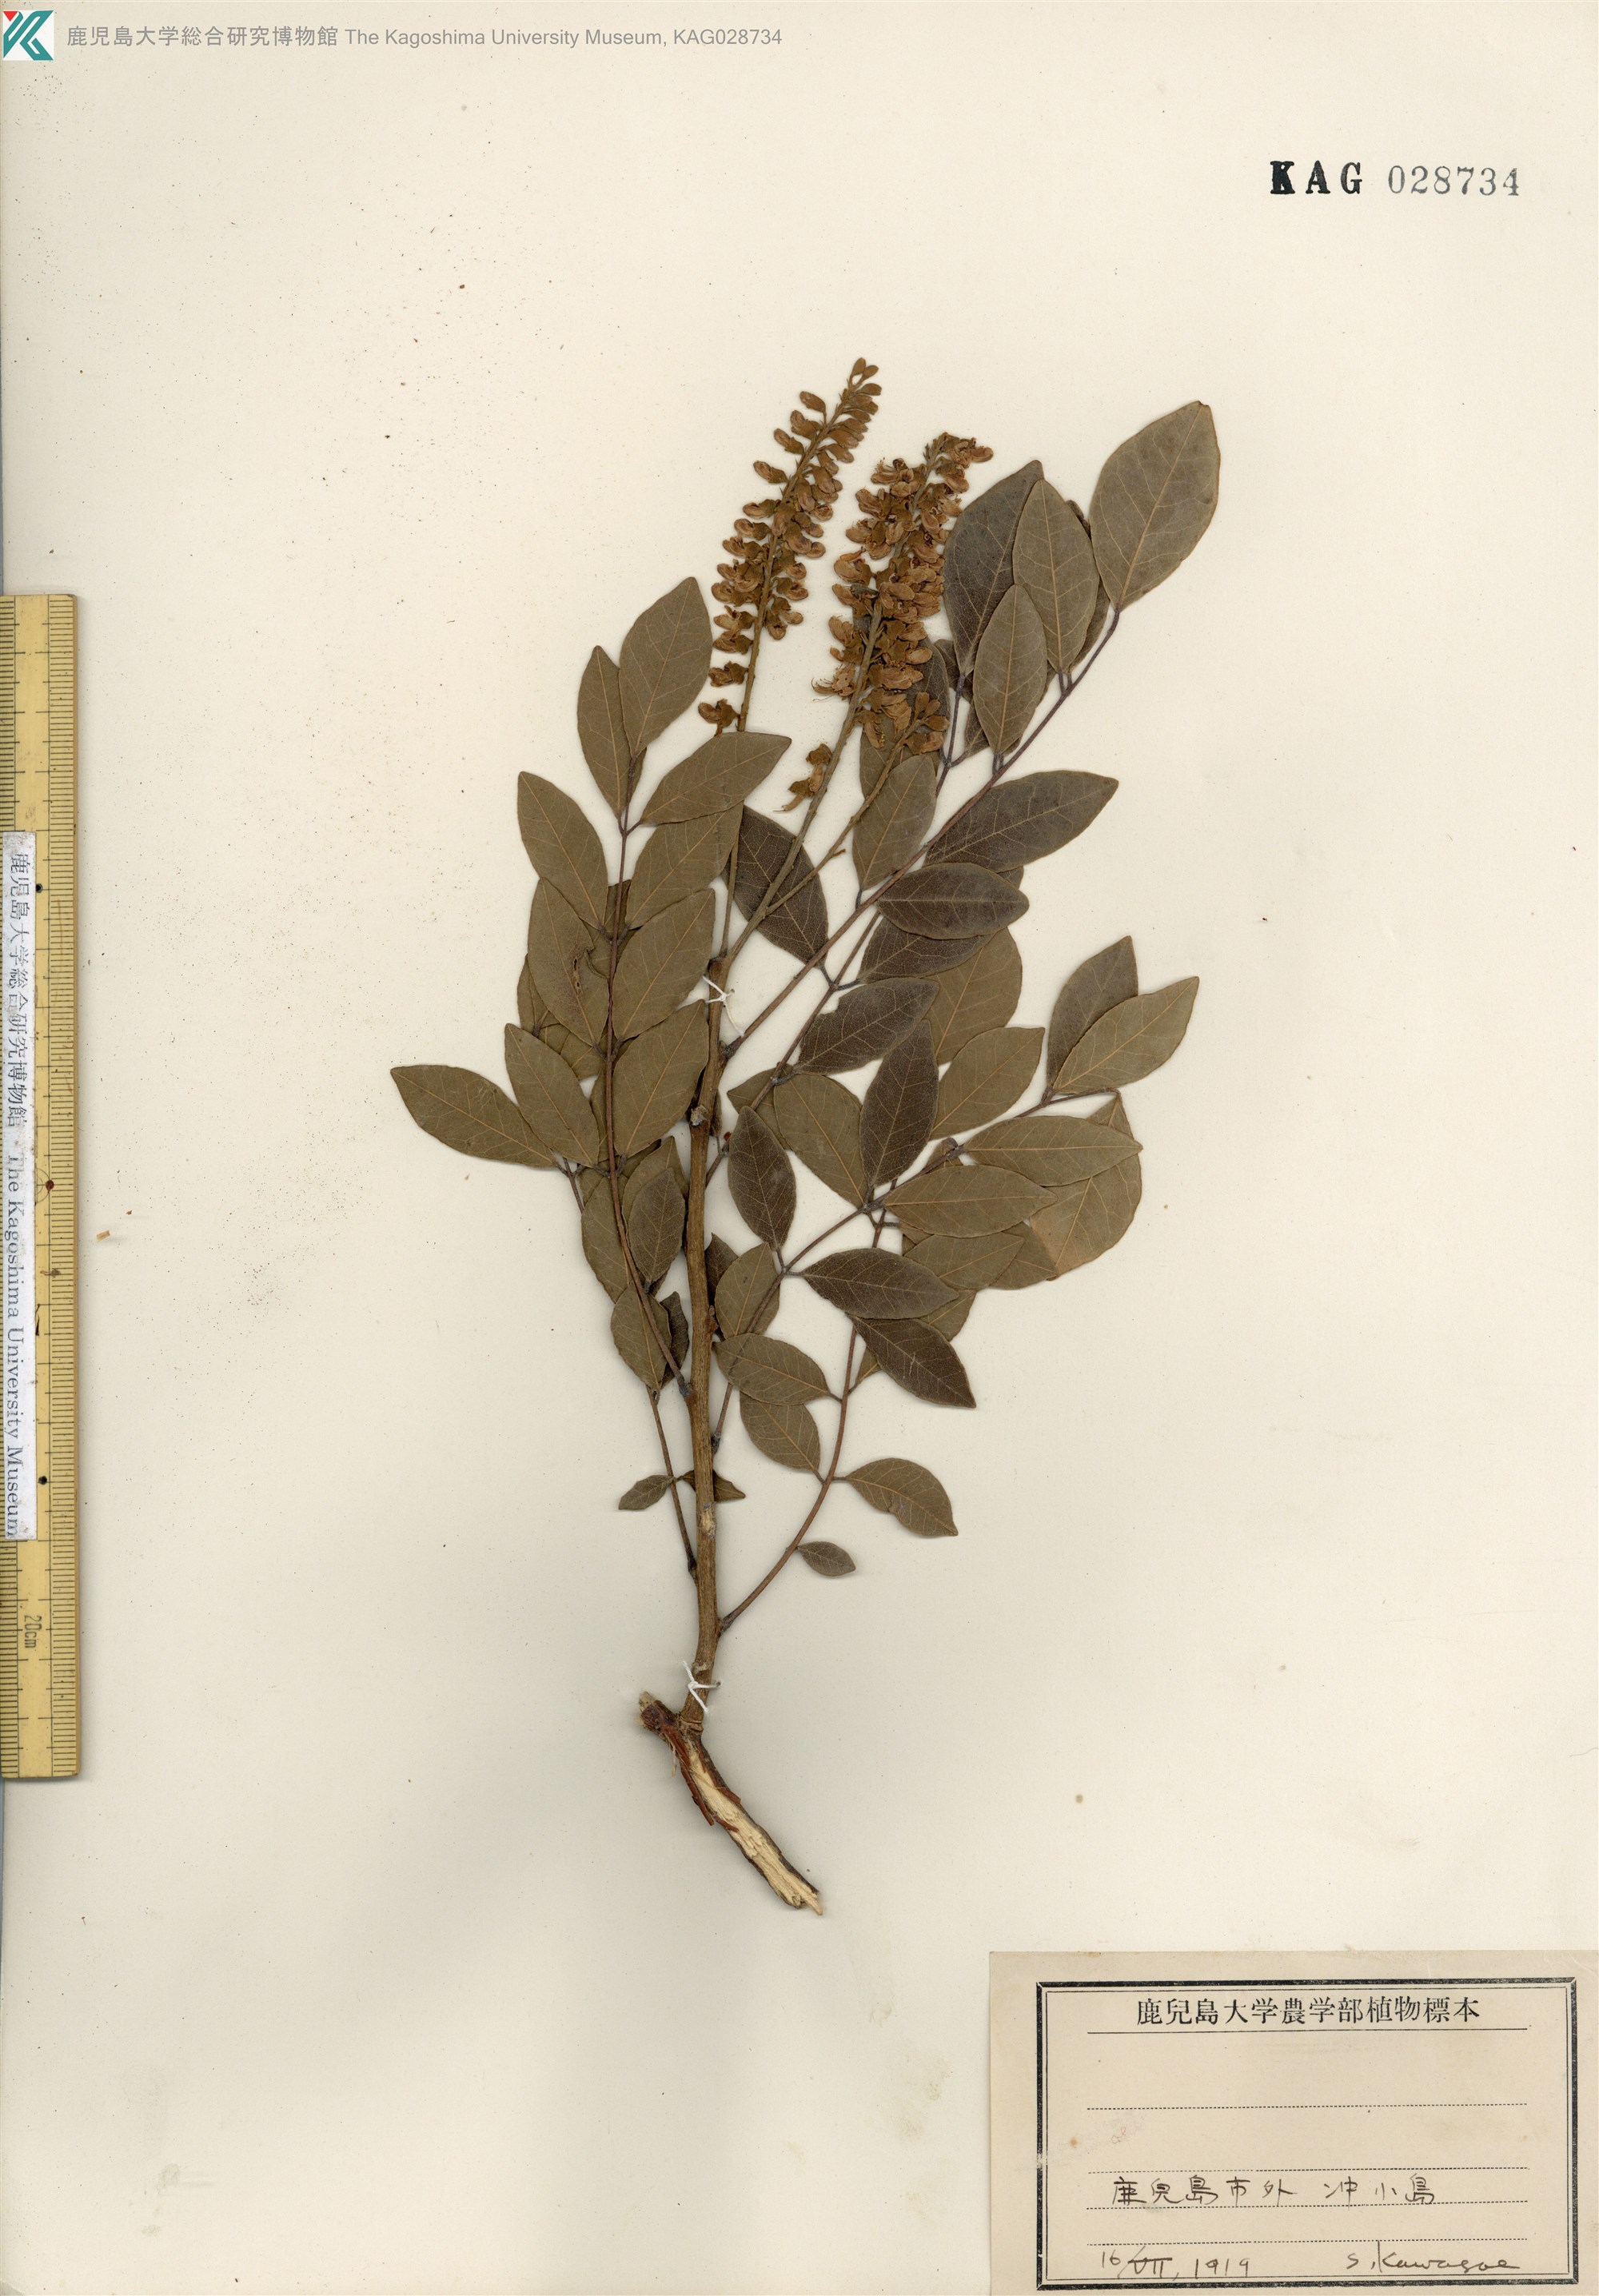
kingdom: Plantae
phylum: Tracheophyta
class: Magnoliopsida
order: Fabales
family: Fabaceae
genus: Maackia
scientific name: Maackia tashiroi
